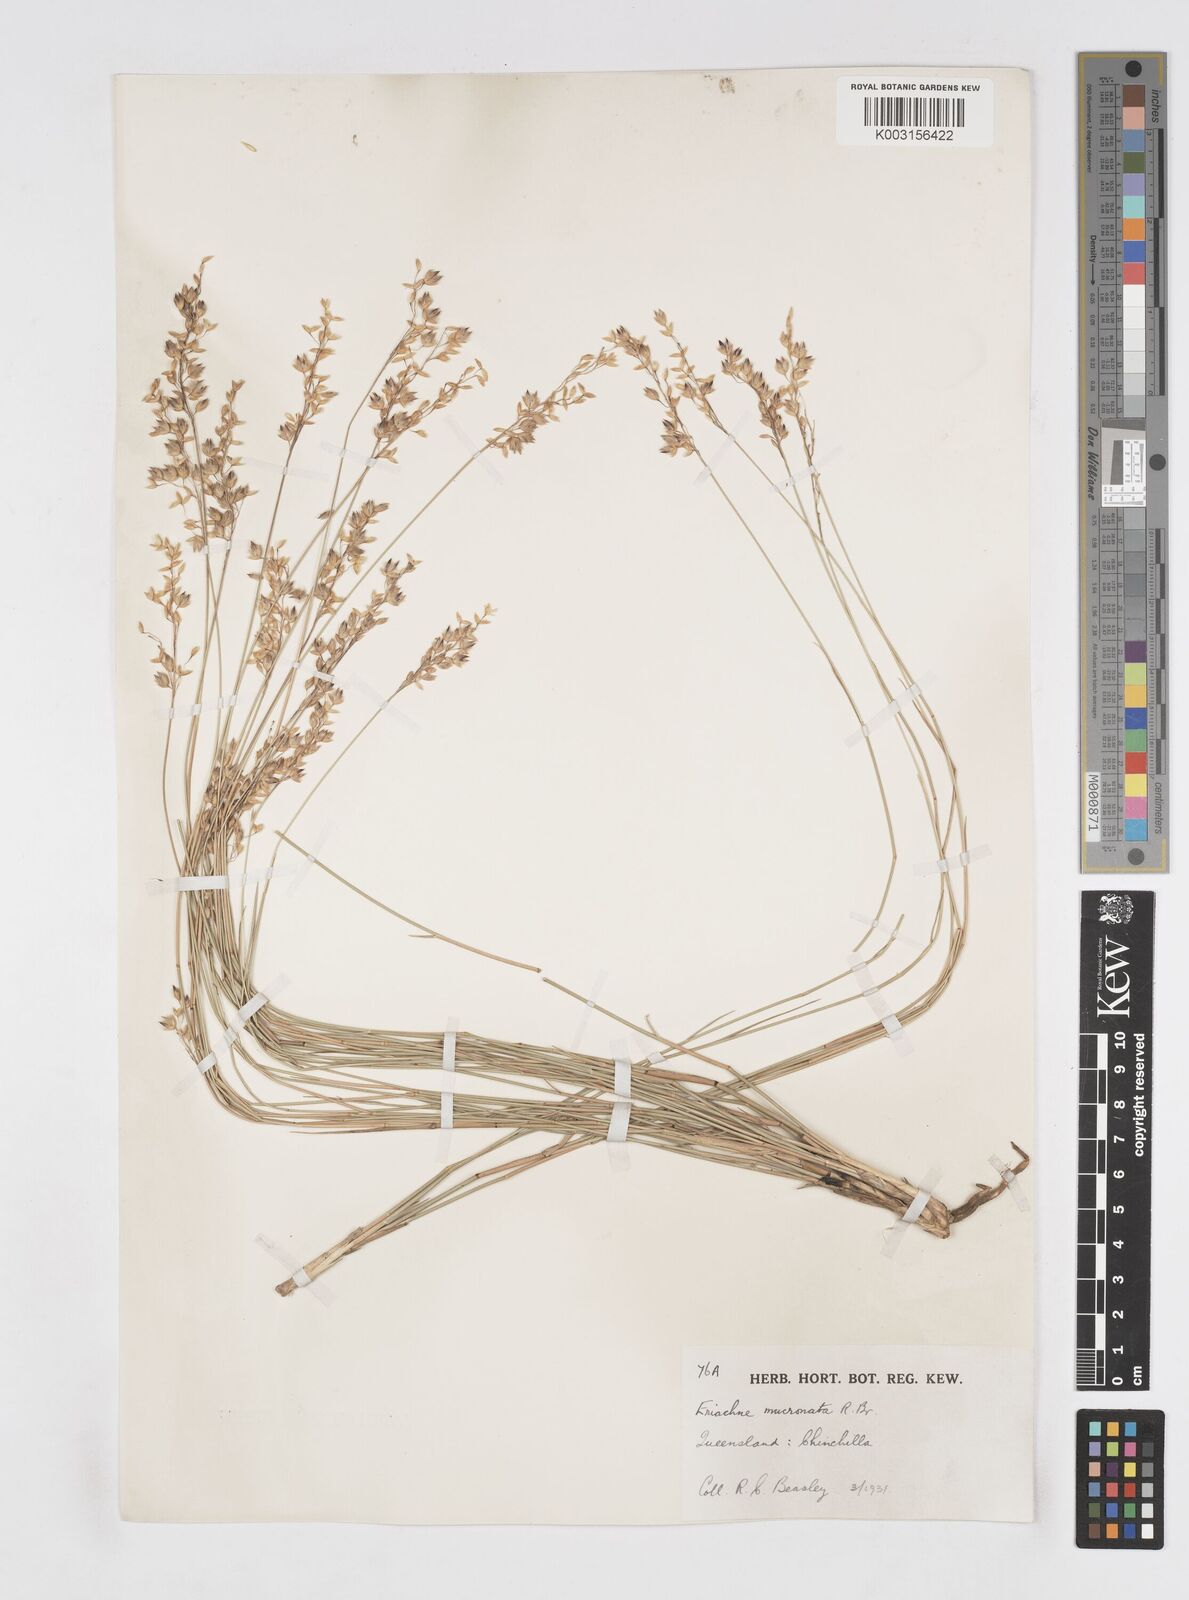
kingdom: Plantae
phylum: Tracheophyta
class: Liliopsida
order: Poales
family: Poaceae
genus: Eriachne
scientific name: Eriachne mucronata
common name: Mountain wanderrie grass
